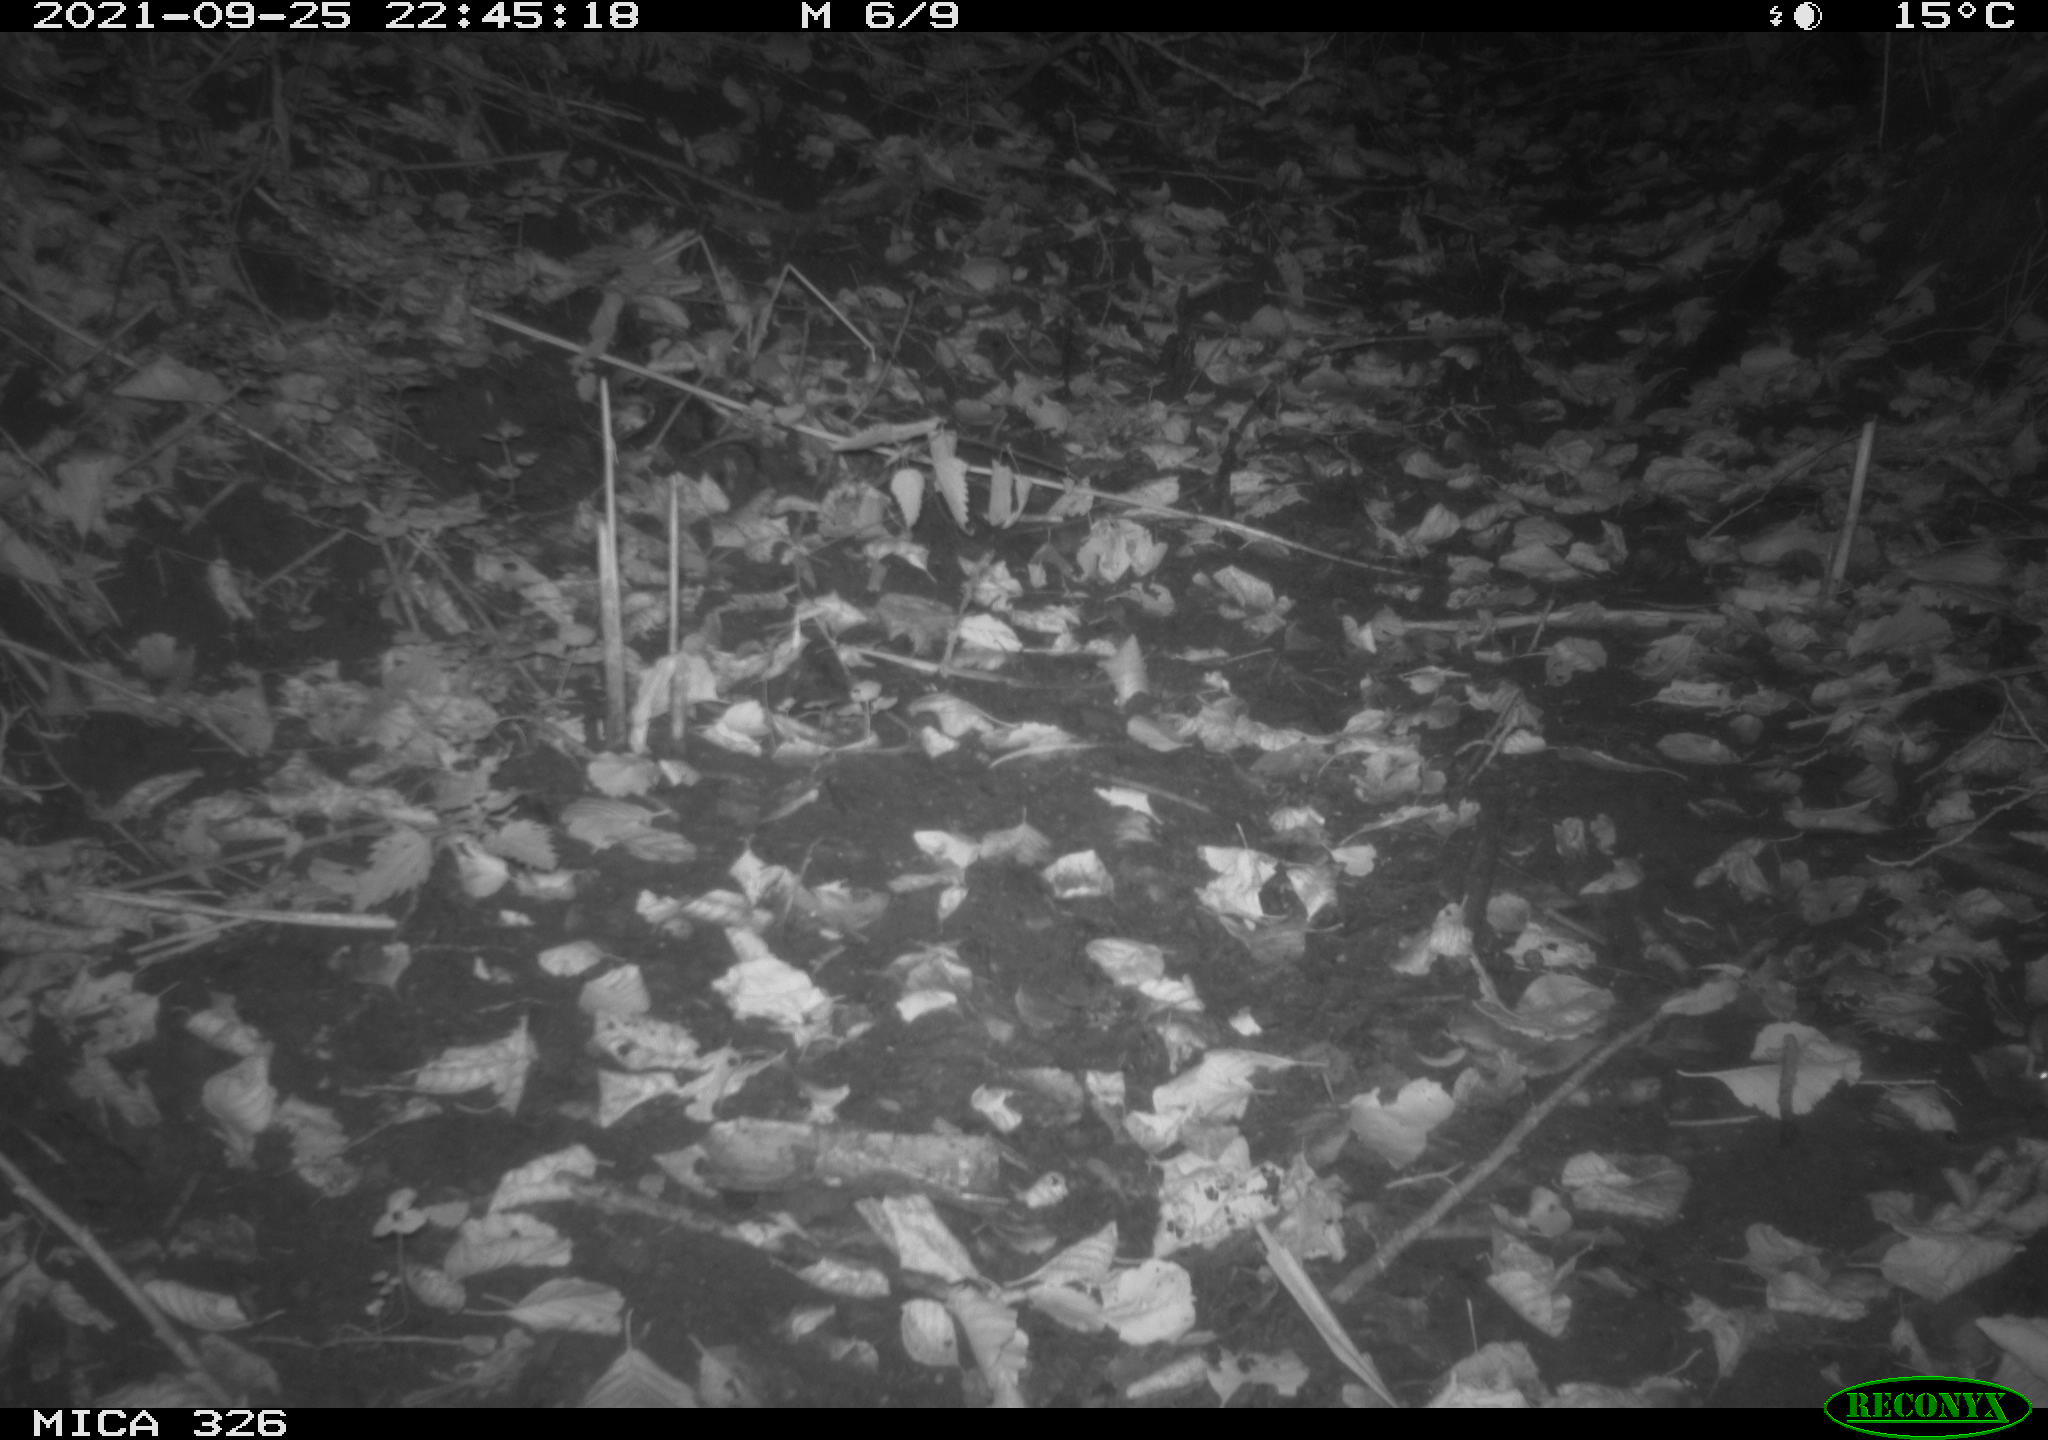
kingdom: Animalia
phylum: Chordata
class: Mammalia
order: Rodentia
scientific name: Rodentia
